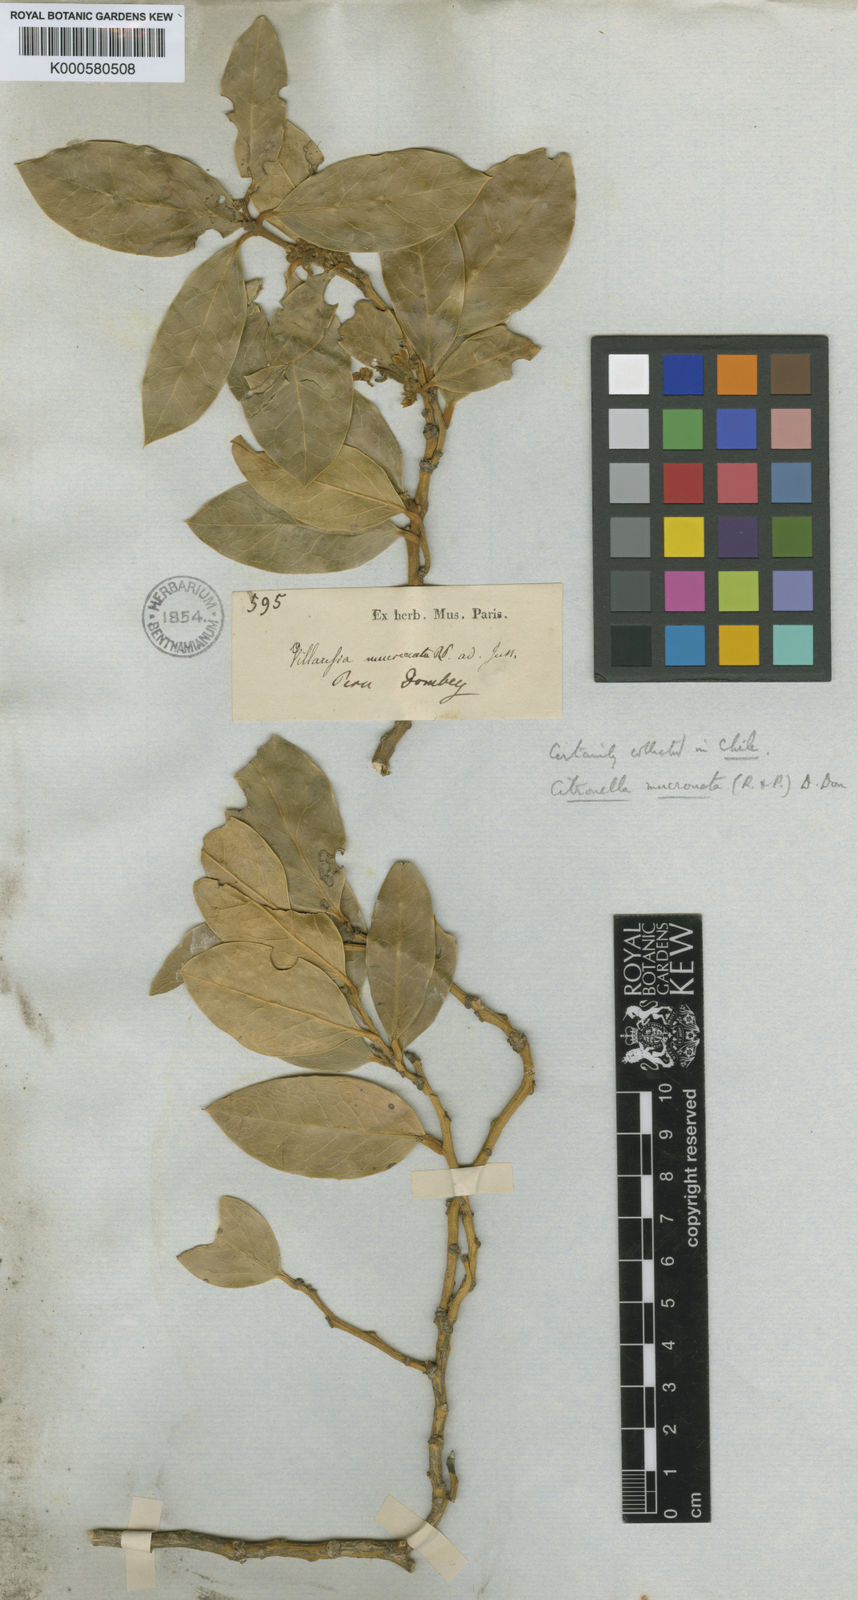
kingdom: Plantae
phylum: Tracheophyta
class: Magnoliopsida
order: Cardiopteridales
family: Cardiopteridaceae
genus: Citronella
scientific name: Citronella mucronata
